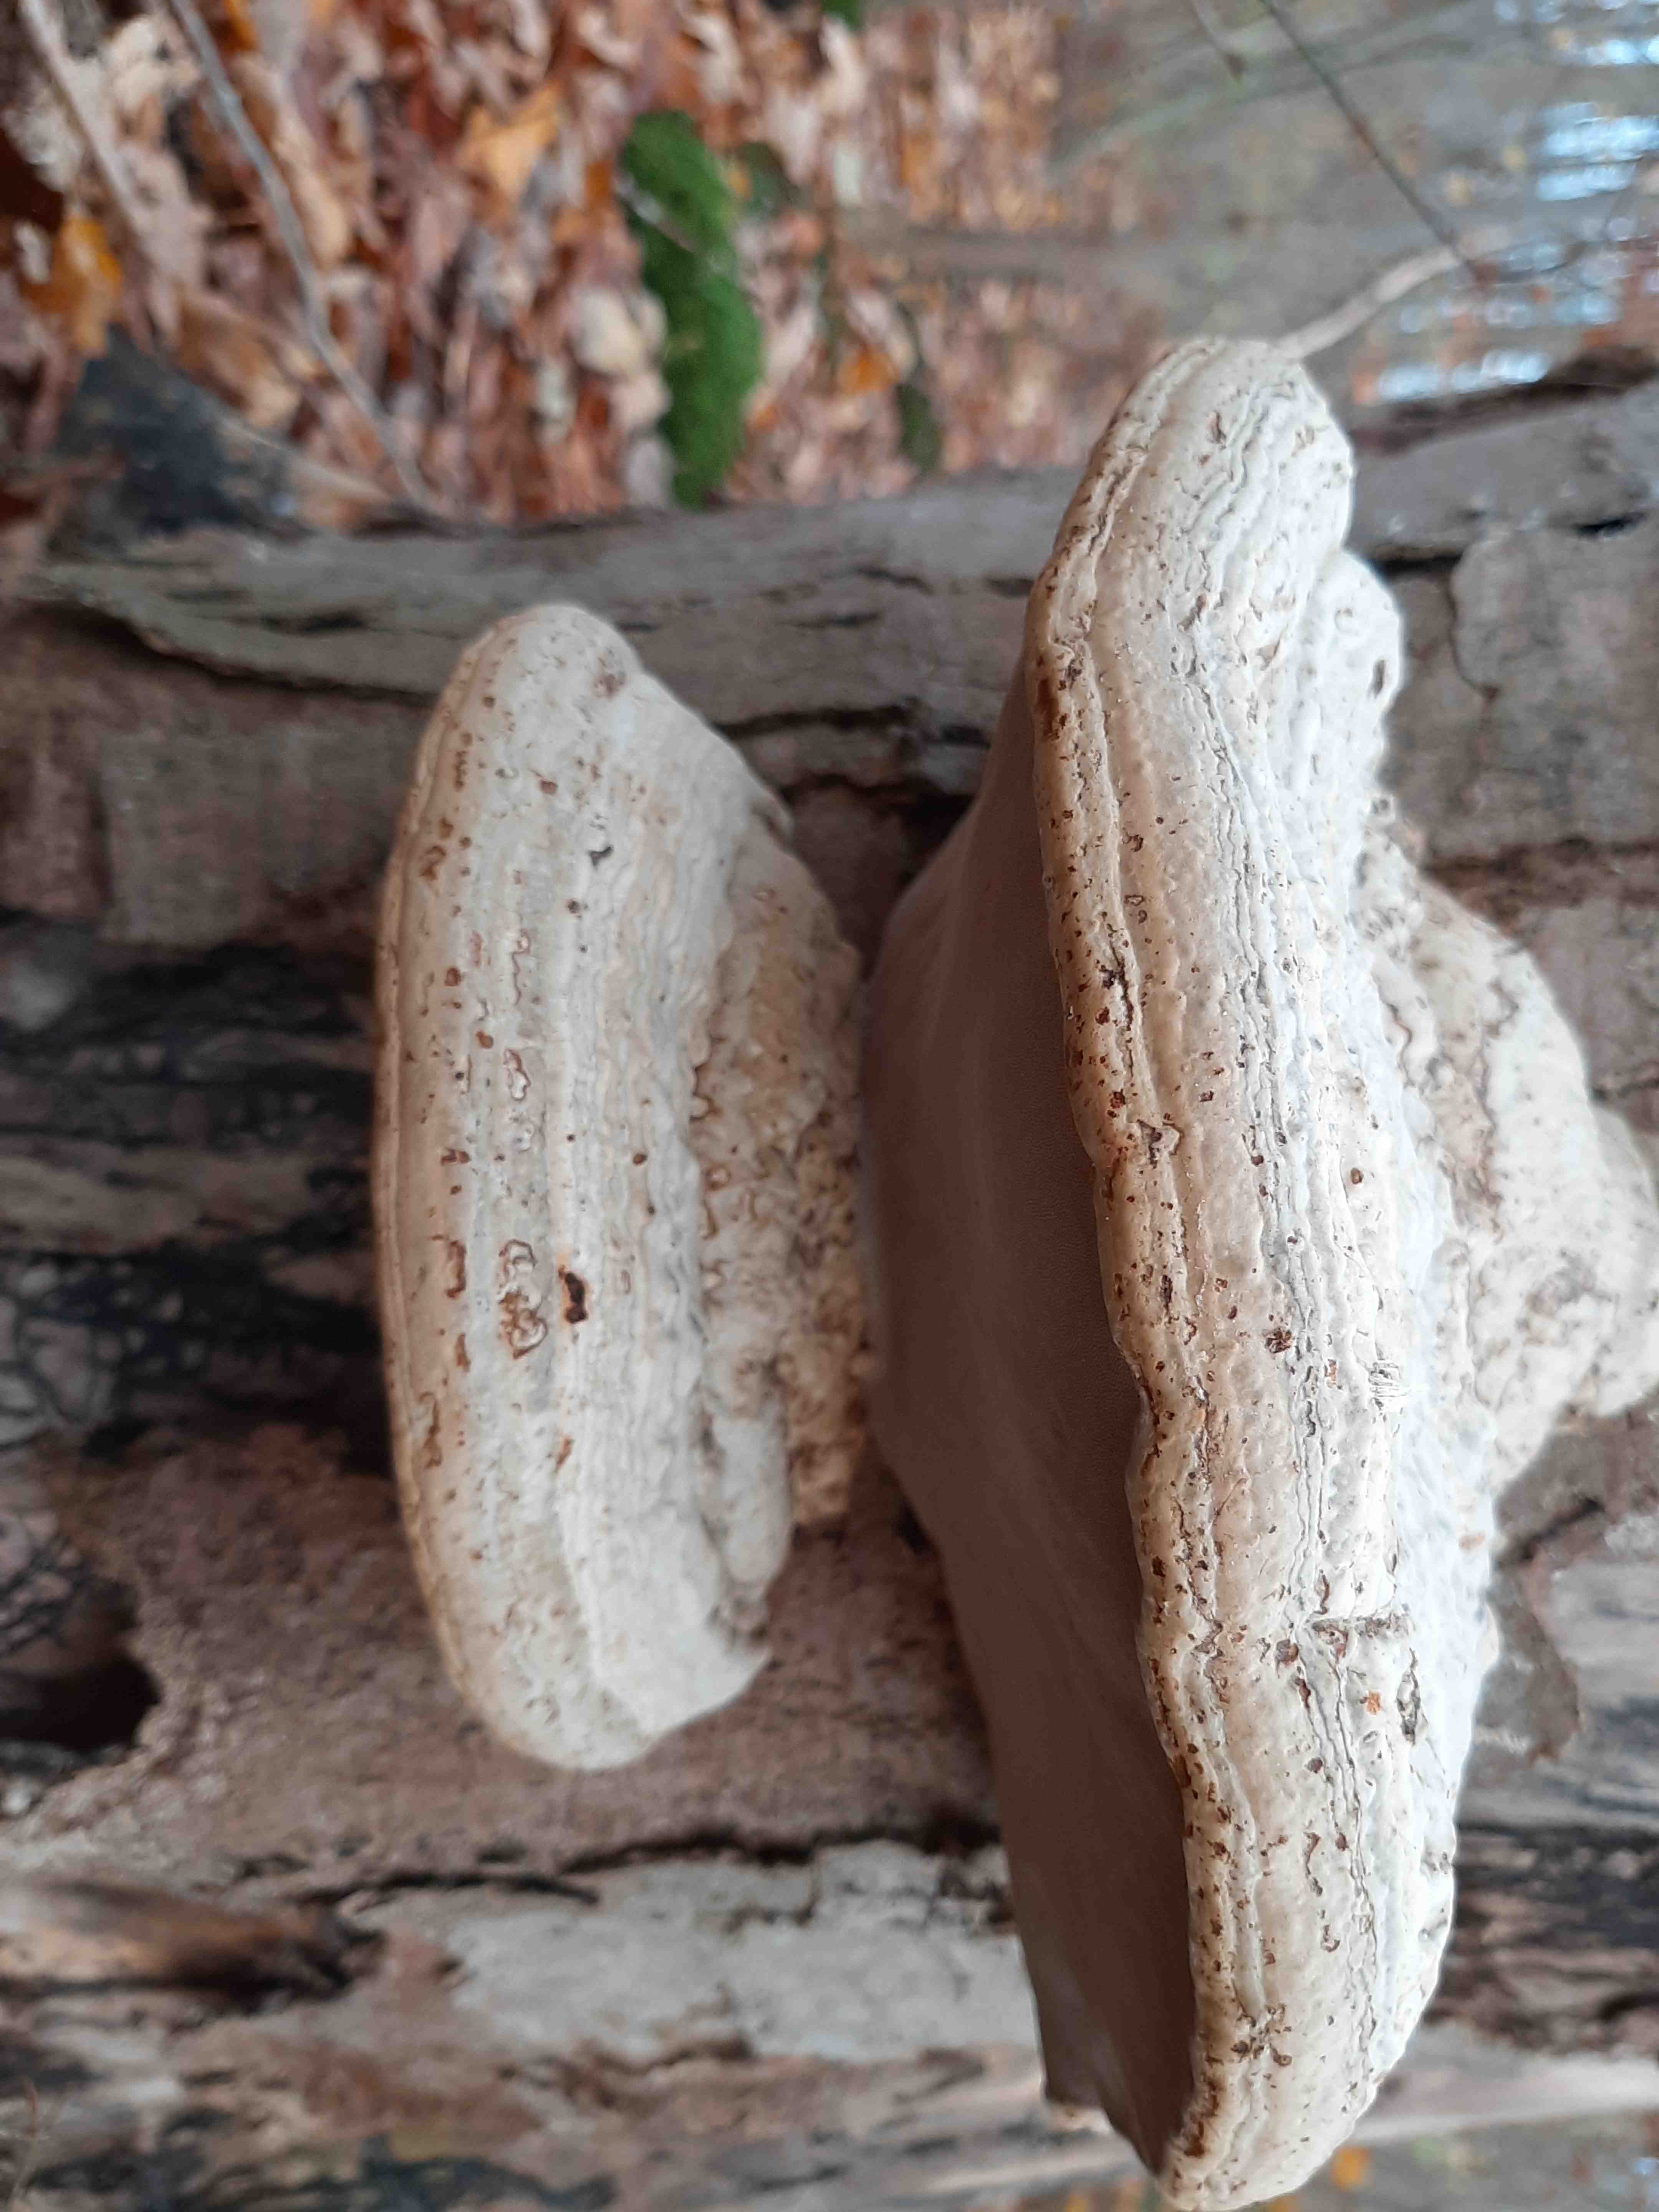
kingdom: Fungi
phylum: Basidiomycota
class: Agaricomycetes
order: Polyporales
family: Polyporaceae
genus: Fomes
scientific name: Fomes fomentarius
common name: tøndersvamp
